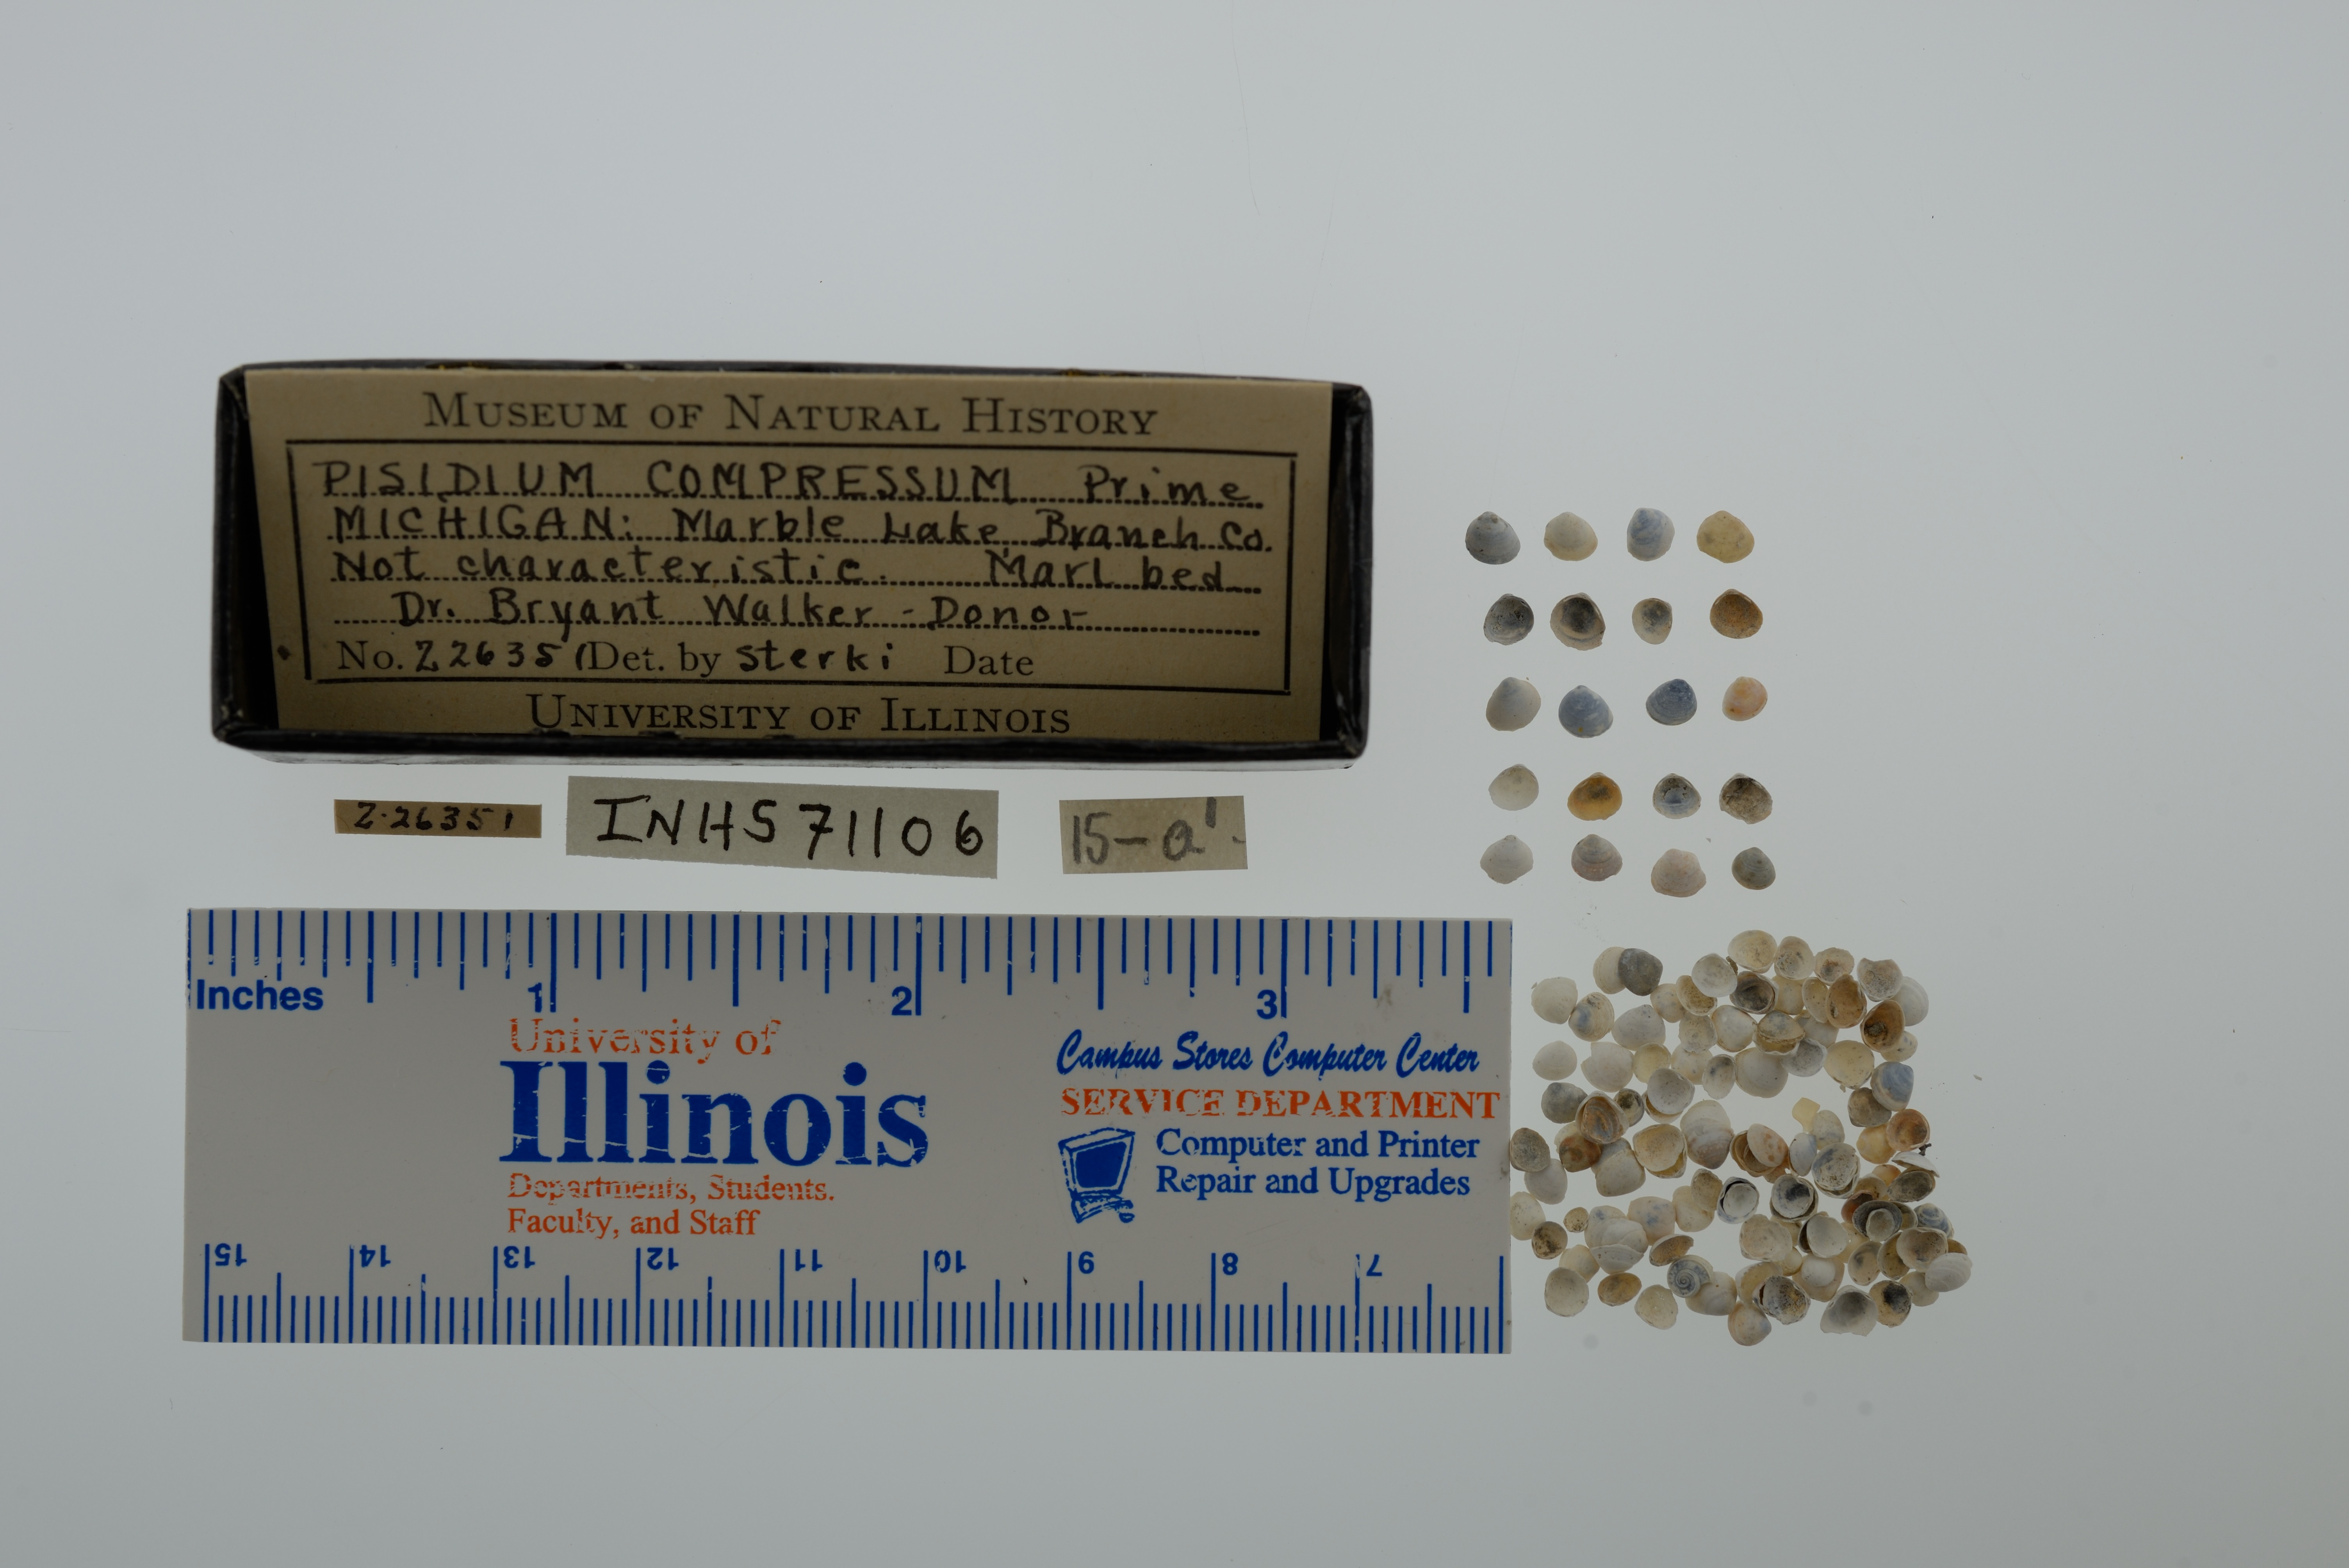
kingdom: Animalia
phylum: Mollusca
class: Bivalvia
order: Sphaeriida
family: Sphaeriidae
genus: Euglesa
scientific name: Euglesa compressa
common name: Ridgedbeak peaclam
